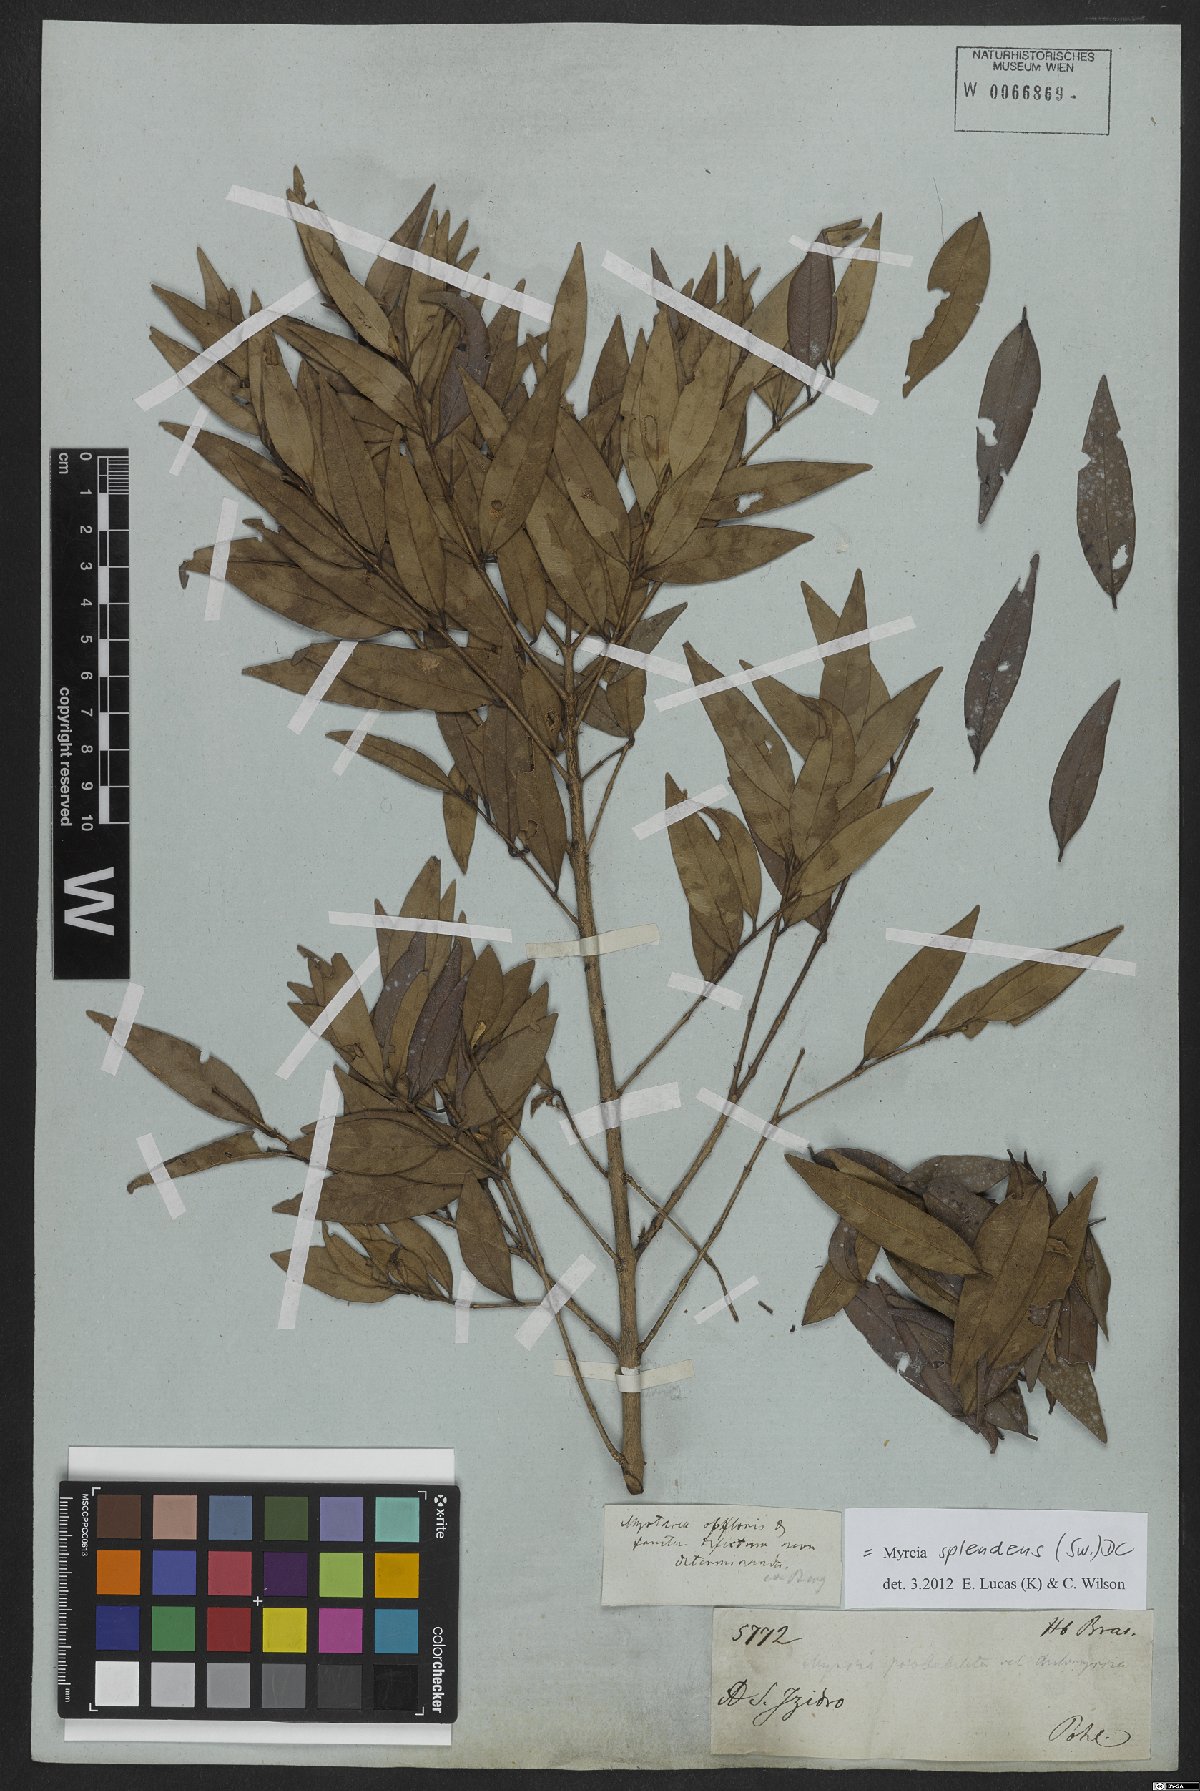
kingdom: Plantae
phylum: Tracheophyta
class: Magnoliopsida
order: Myrtales
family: Myrtaceae
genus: Myrcia
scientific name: Myrcia splendens
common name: Surinam cherry
